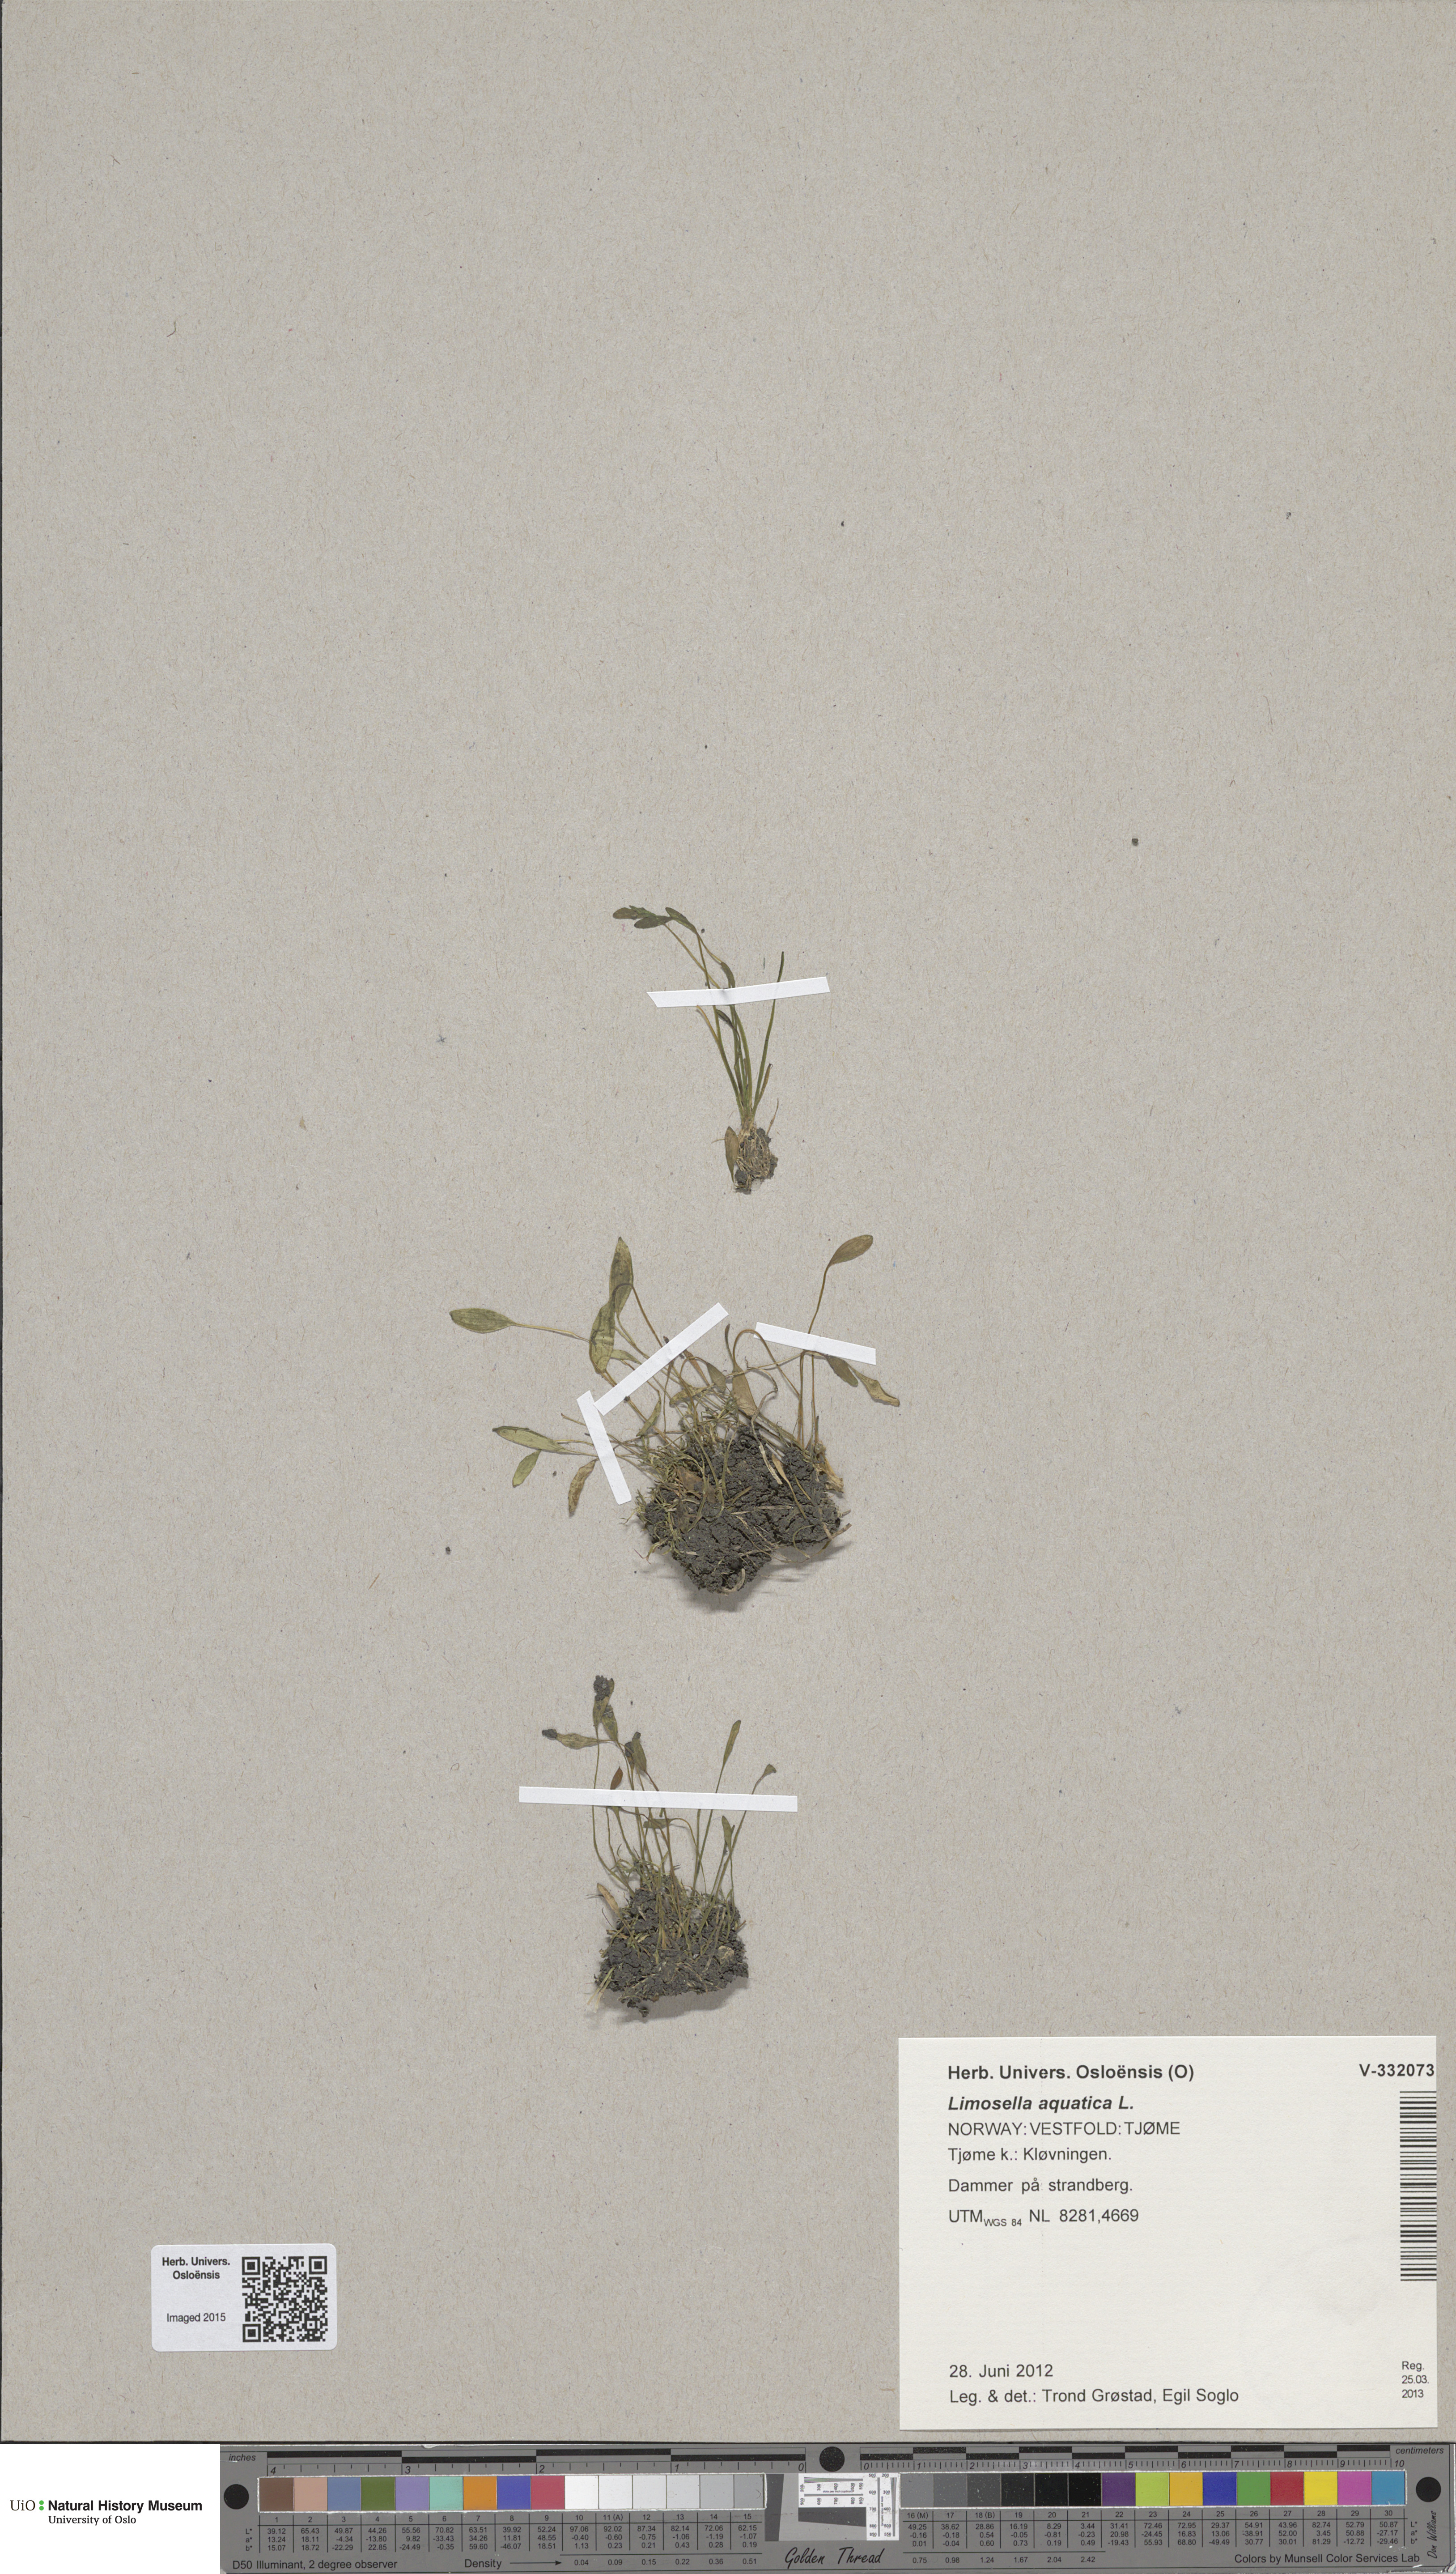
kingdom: Plantae
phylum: Tracheophyta
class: Magnoliopsida
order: Lamiales
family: Scrophulariaceae
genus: Limosella
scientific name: Limosella aquatica
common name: Mudwort
